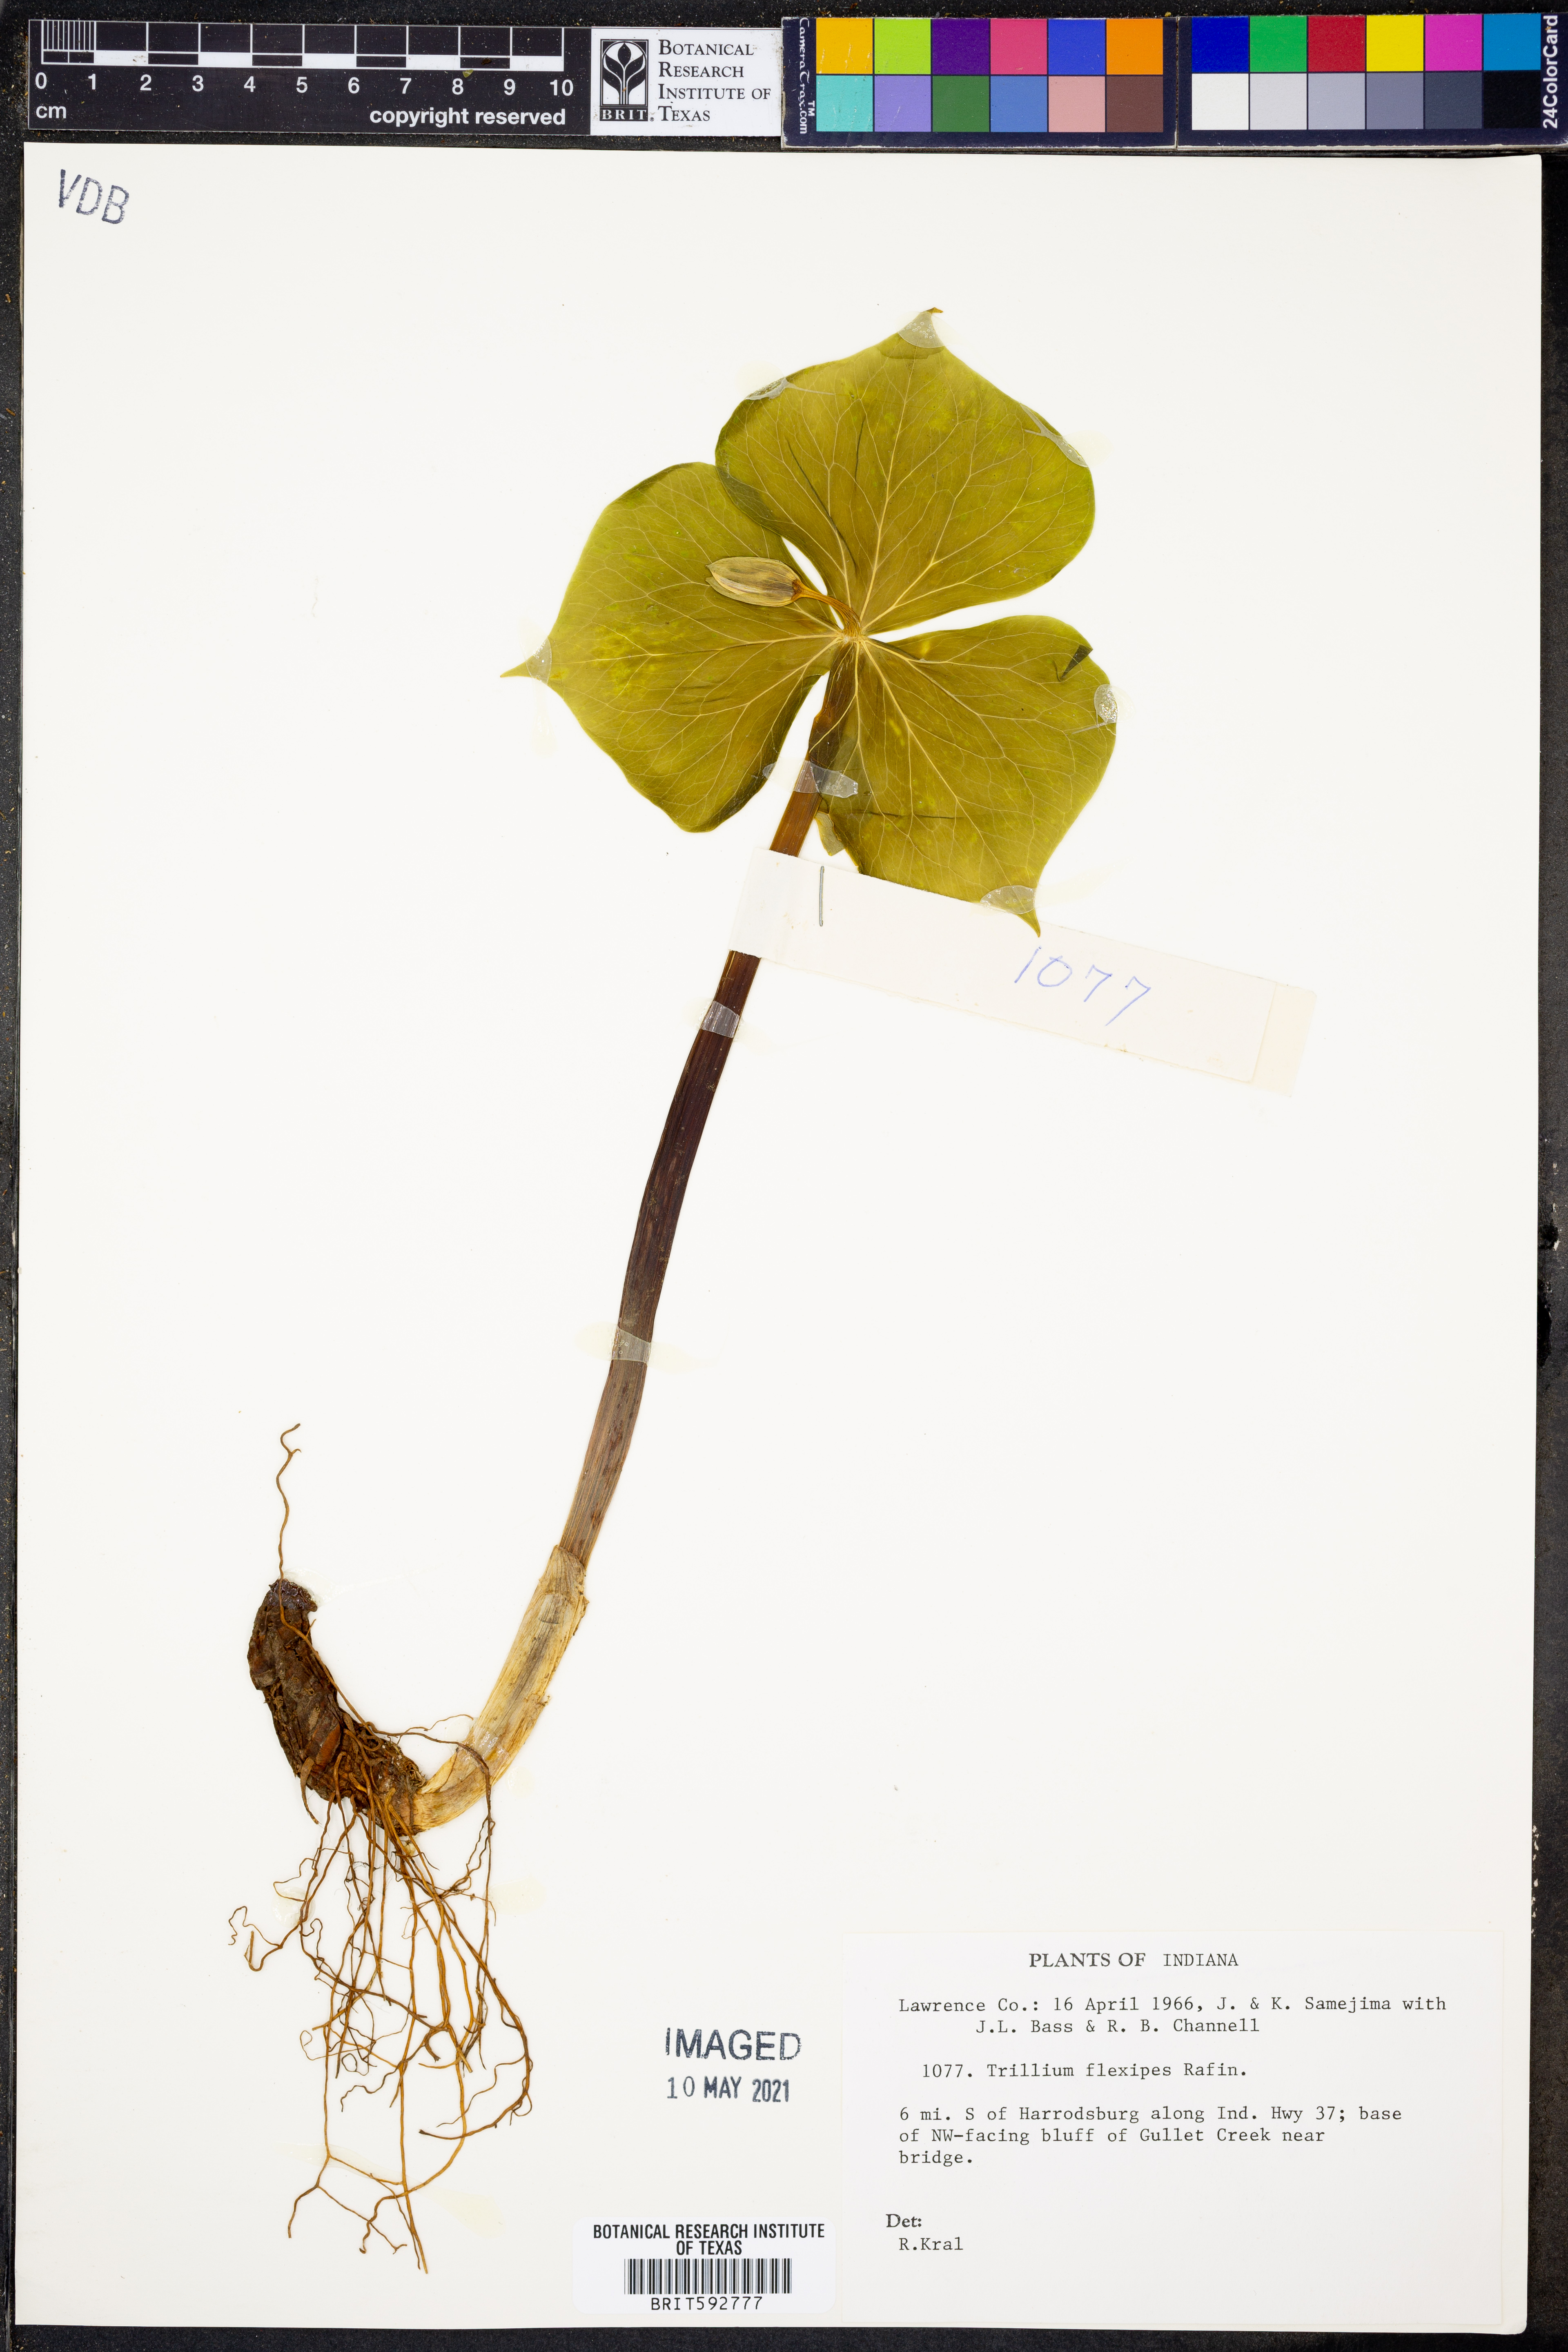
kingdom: Plantae
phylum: Tracheophyta
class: Liliopsida
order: Liliales
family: Melanthiaceae
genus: Trillium
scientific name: Trillium flexipes
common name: Drooping trillium
